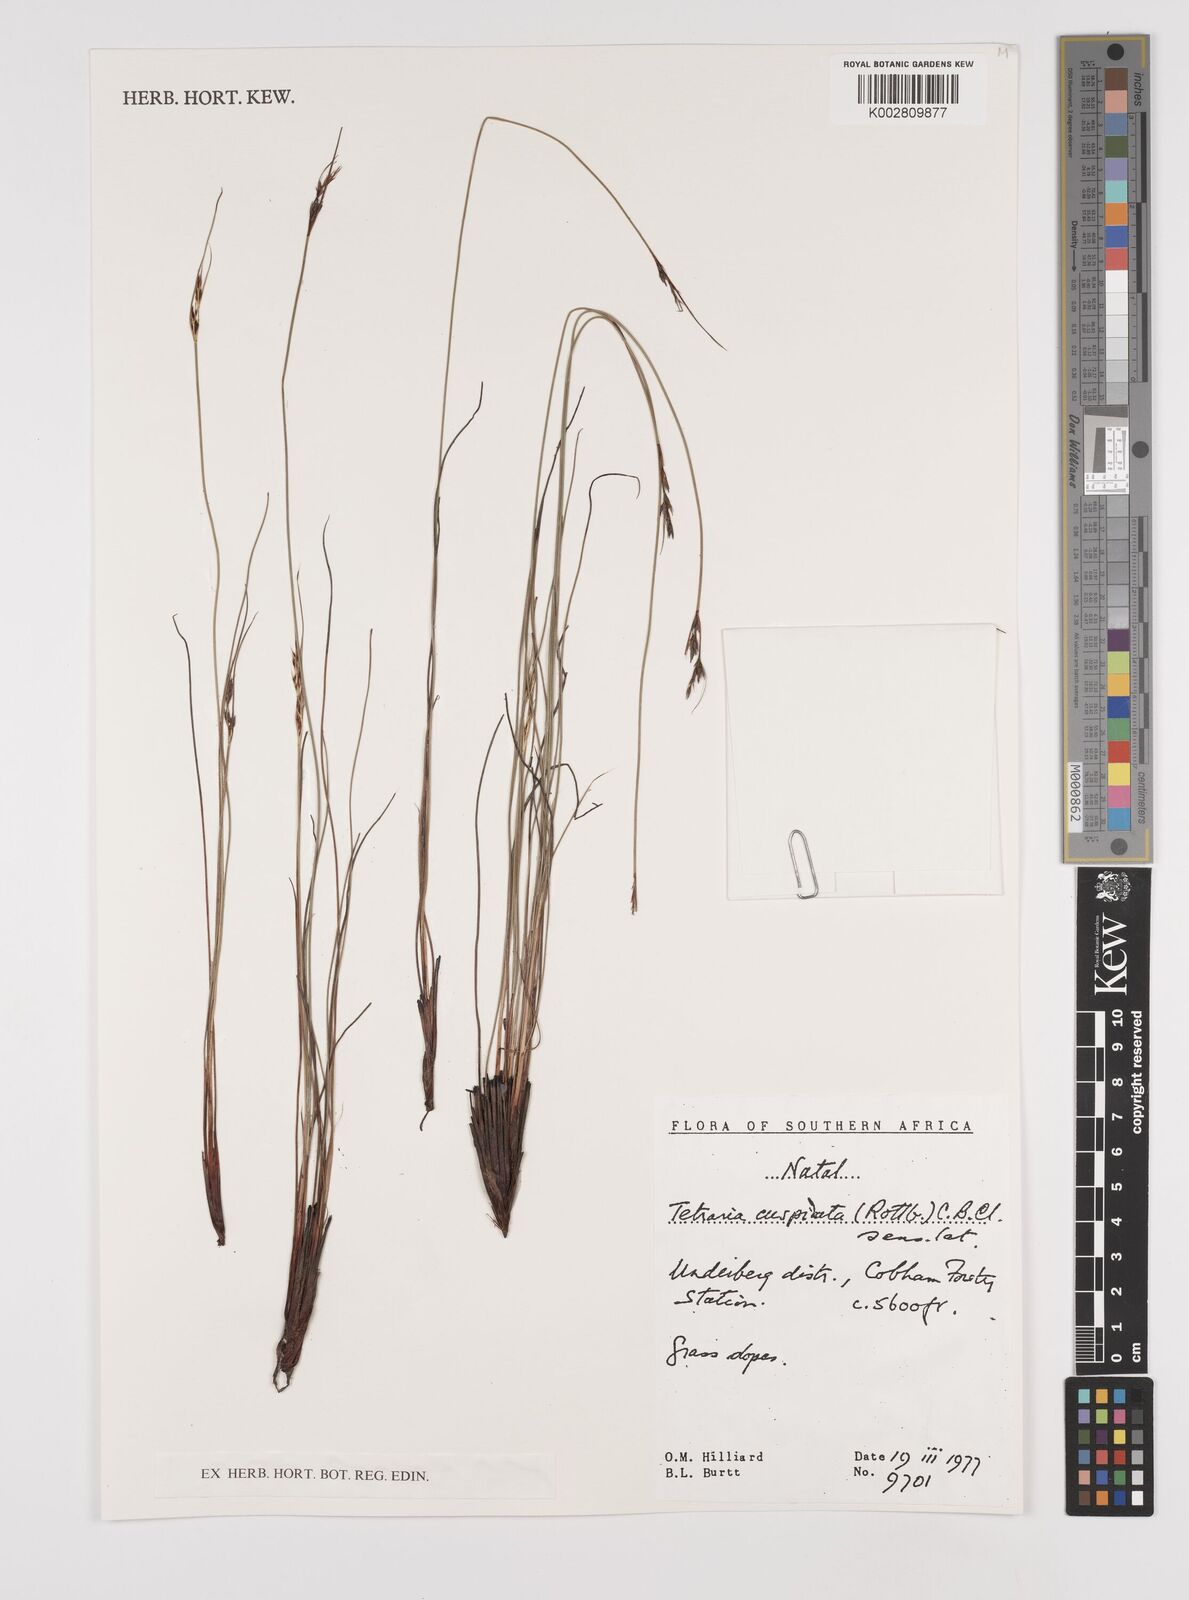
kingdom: Plantae
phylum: Tracheophyta
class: Liliopsida
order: Poales
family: Cyperaceae
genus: Schoenus
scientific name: Schoenus
